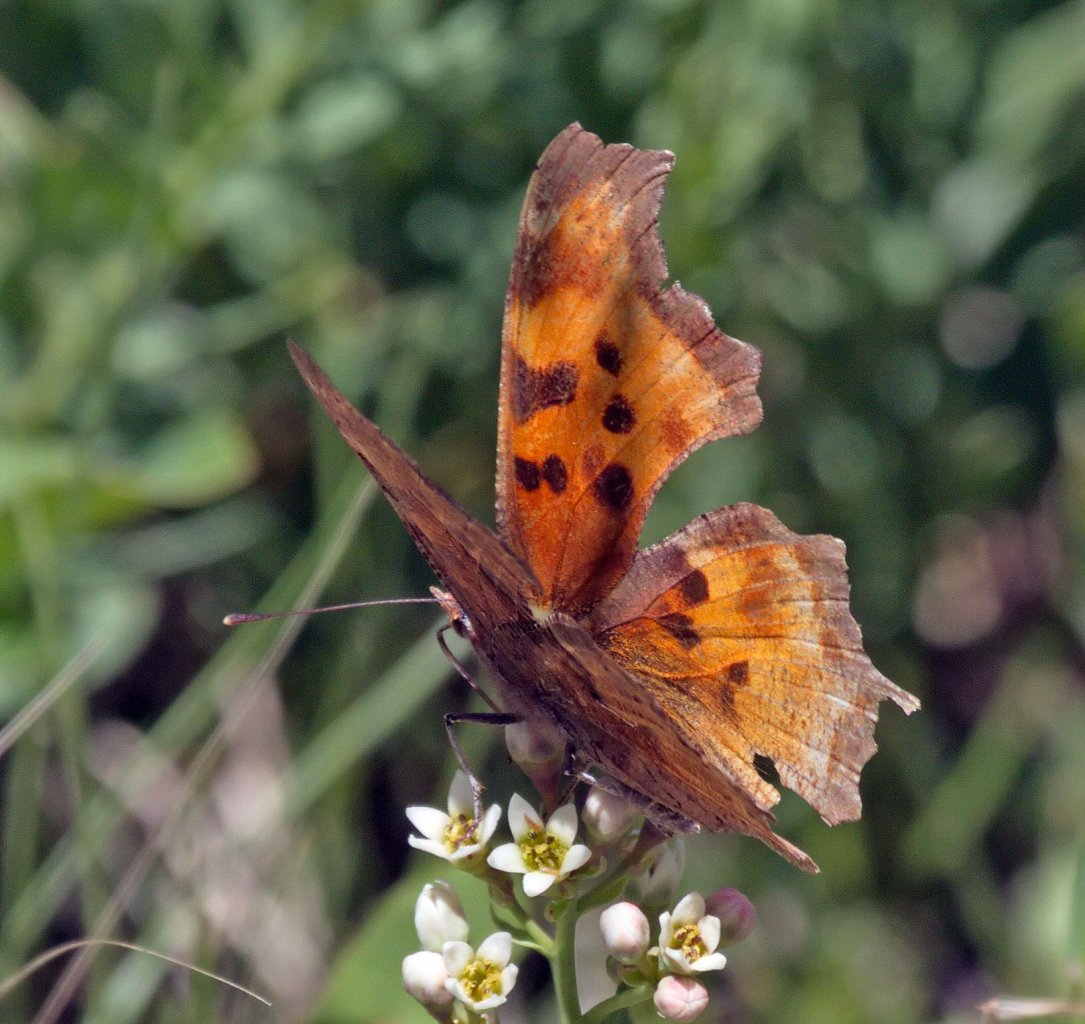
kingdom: Animalia
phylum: Arthropoda
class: Insecta
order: Lepidoptera
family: Nymphalidae
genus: Polygonia
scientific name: Polygonia faunus
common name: Green Comma
